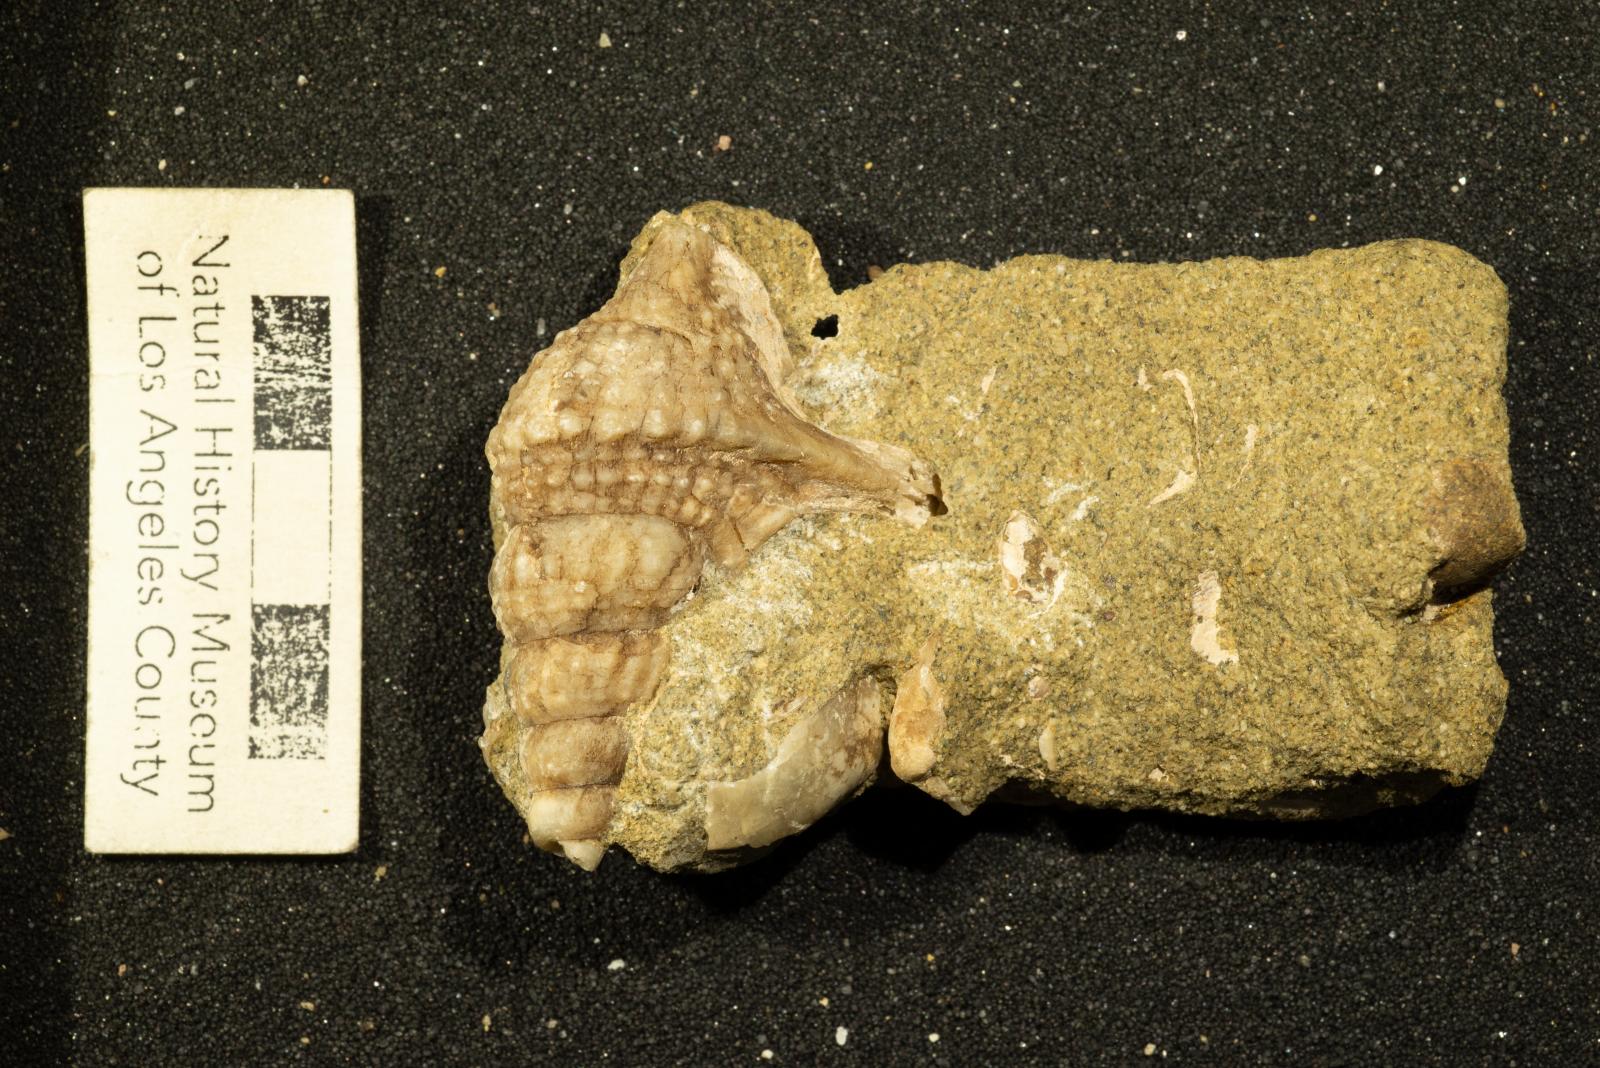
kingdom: Animalia
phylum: Mollusca
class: Gastropoda
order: Littorinimorpha
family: Aporrhaidae
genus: Helicaulax
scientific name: Helicaulax condoniana
